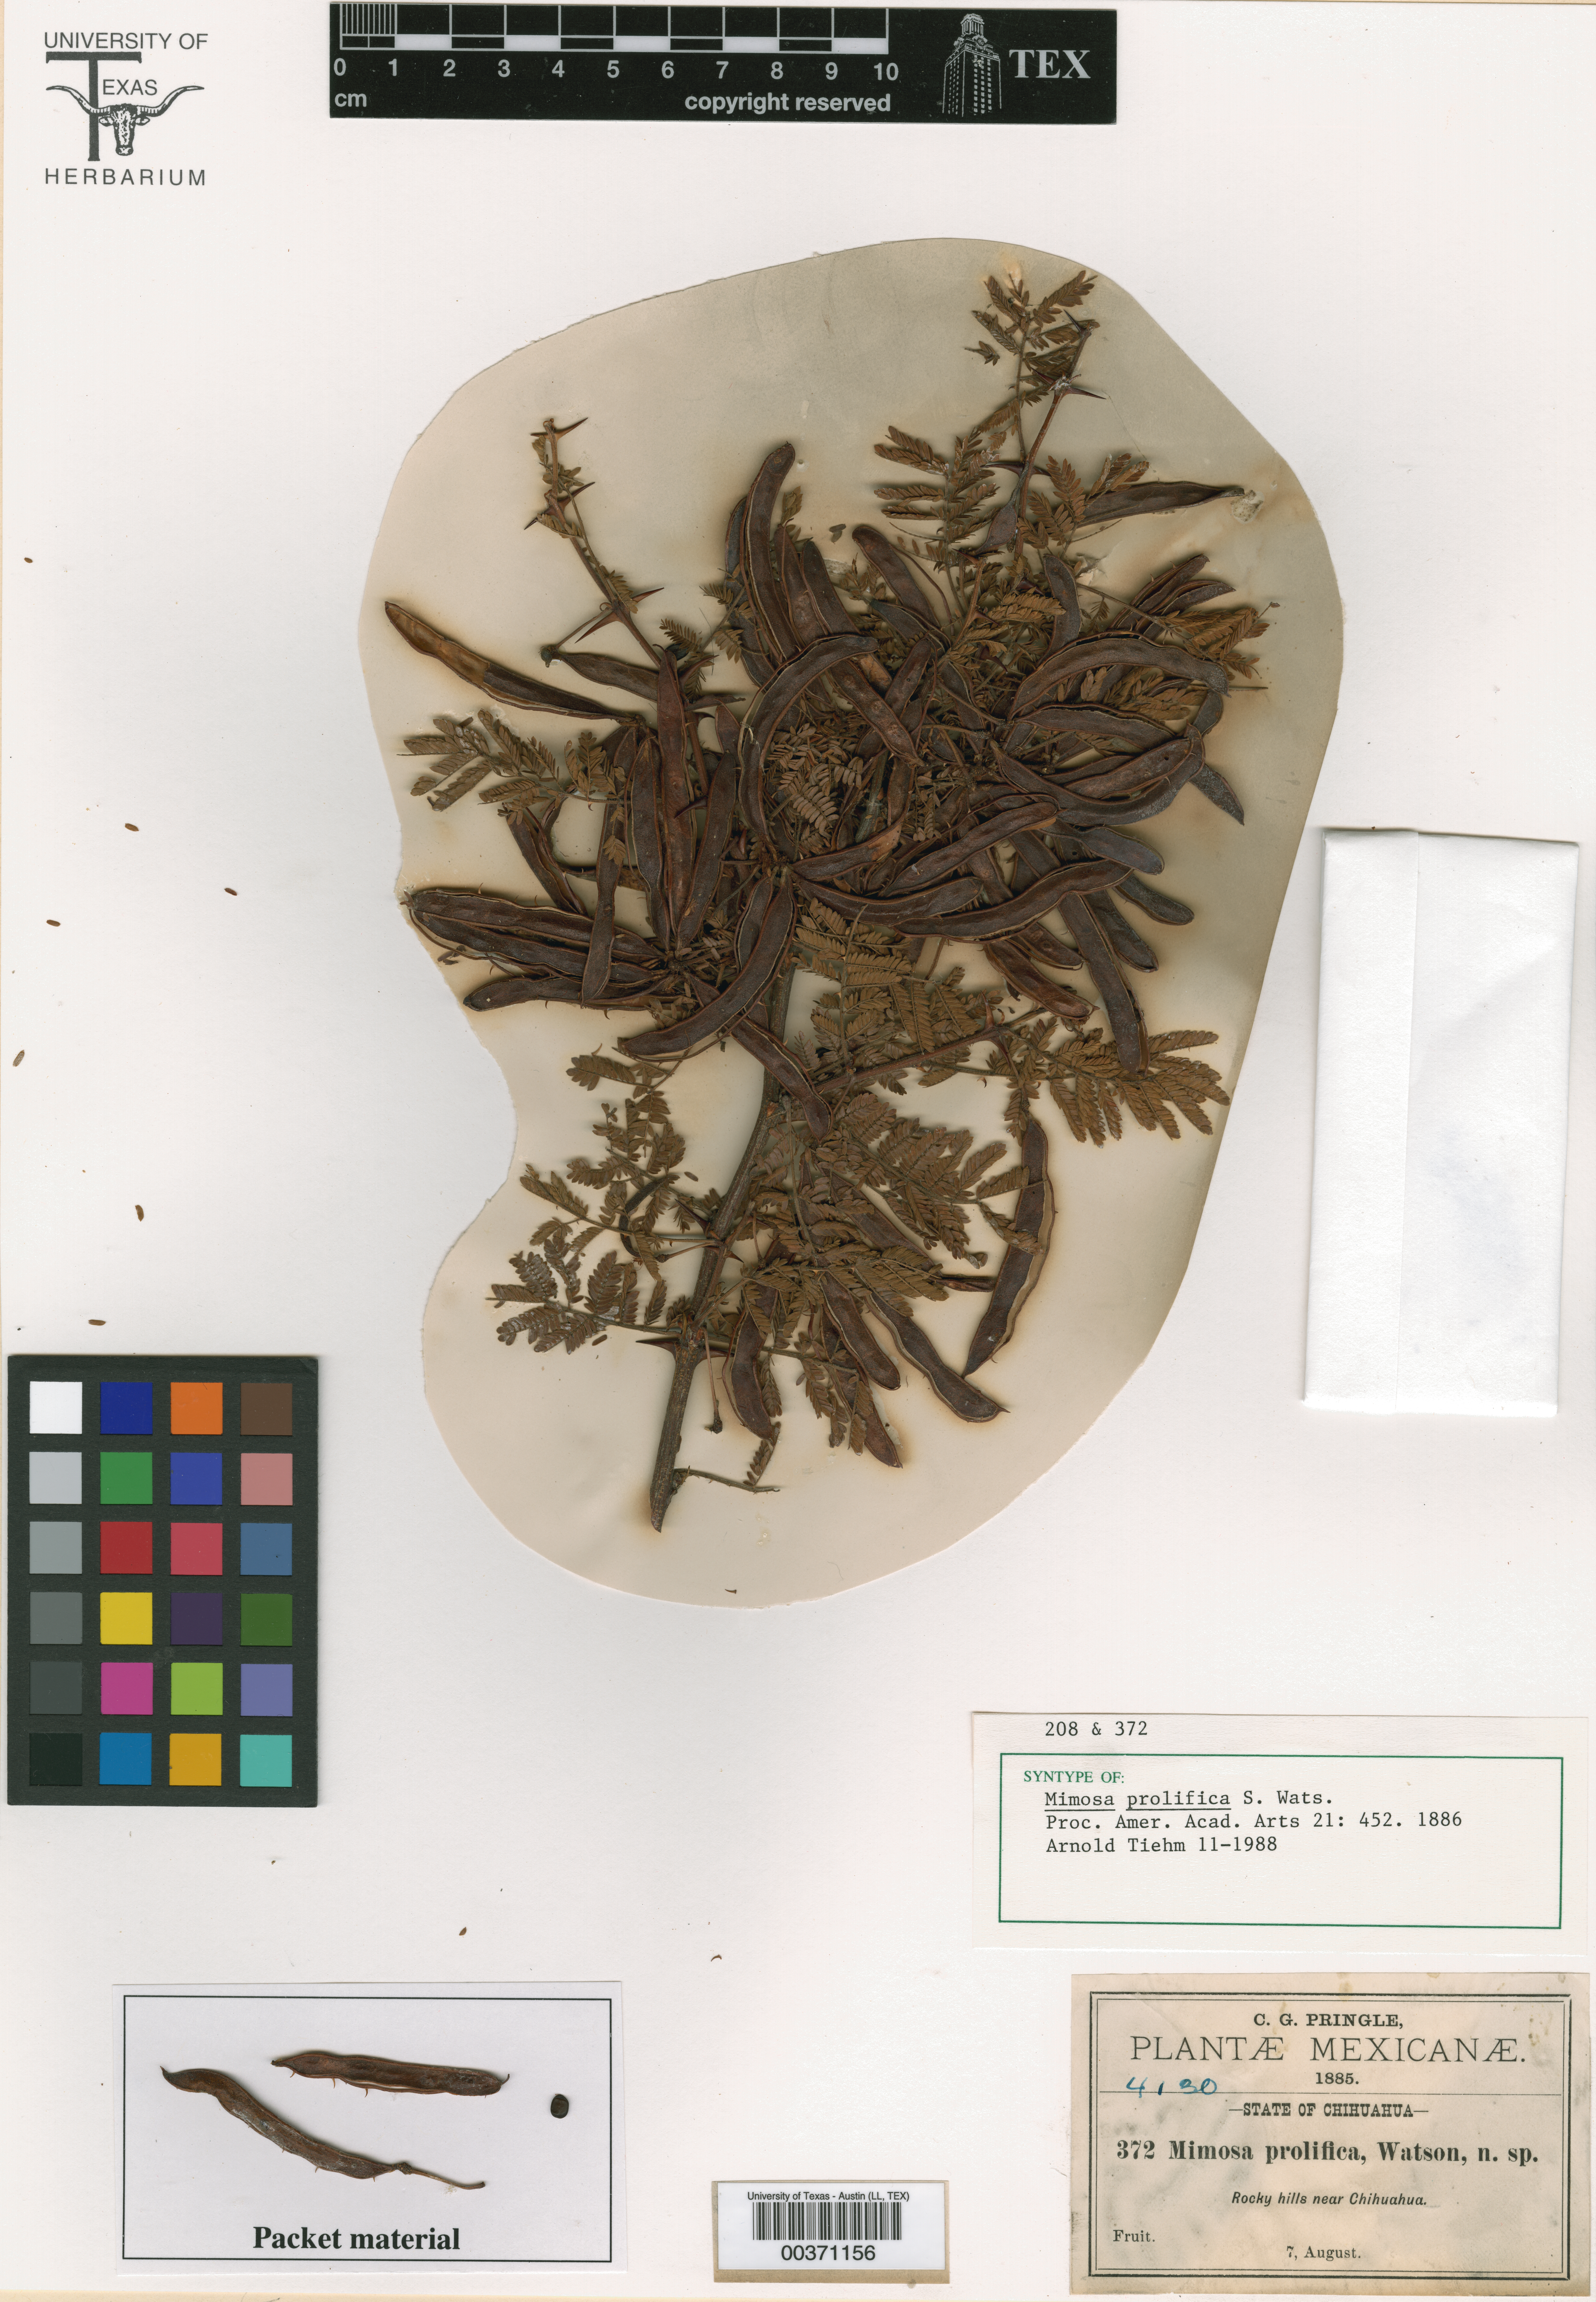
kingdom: Plantae
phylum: Tracheophyta
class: Magnoliopsida
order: Fabales
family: Fabaceae
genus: Mimosa
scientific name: Mimosa grahamii
